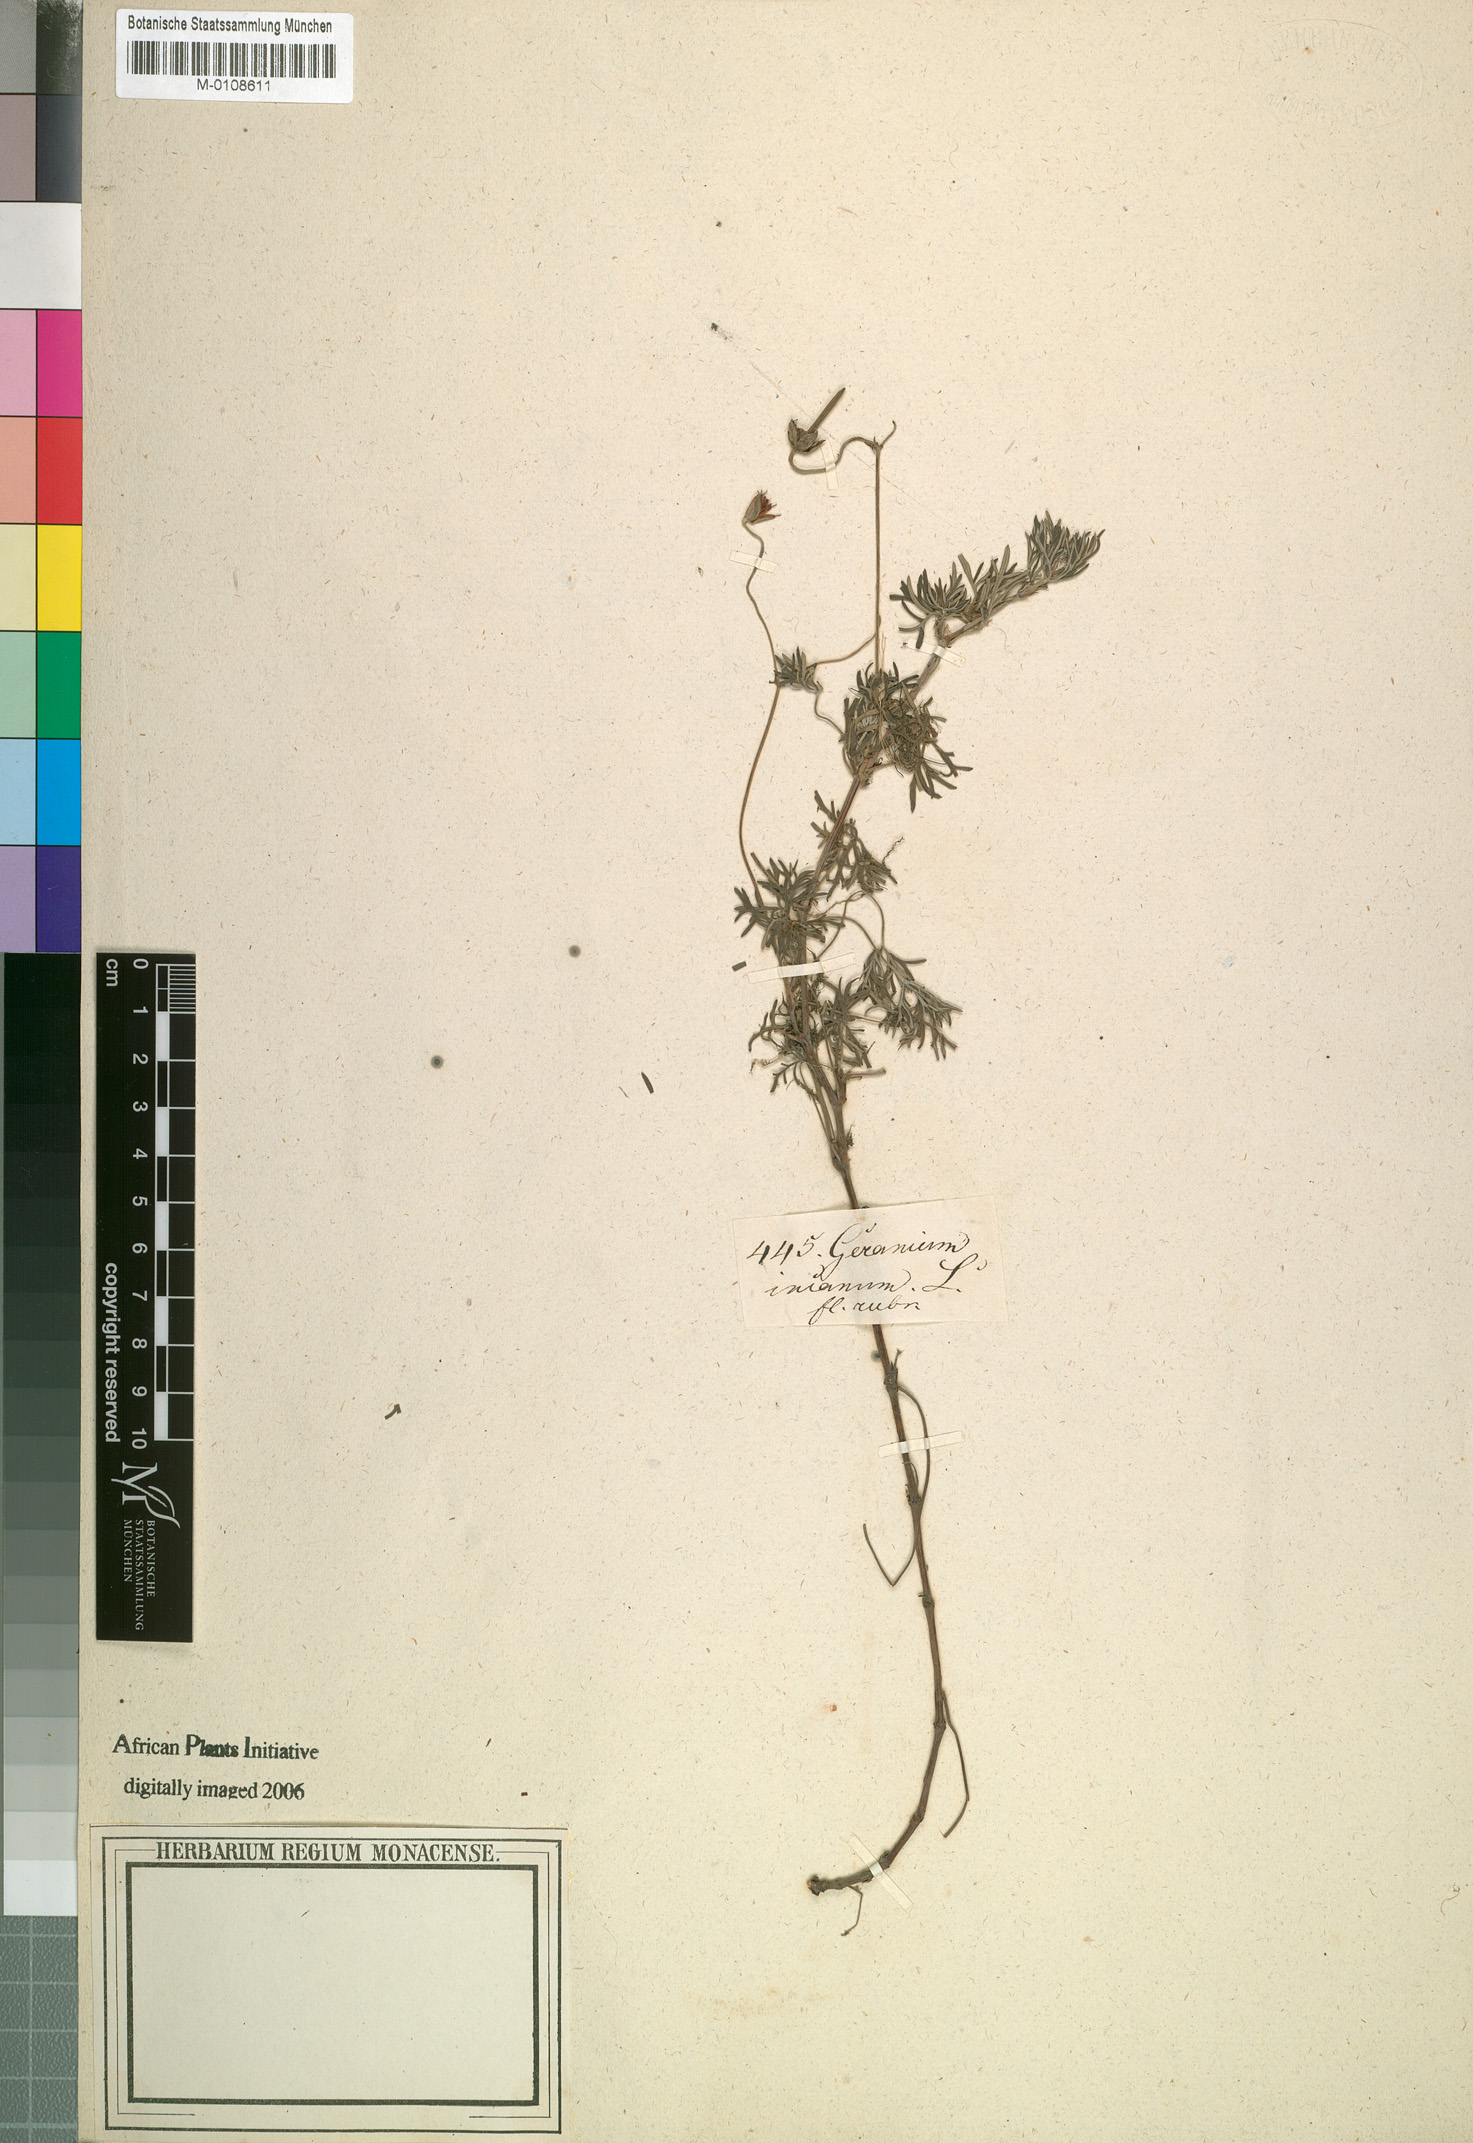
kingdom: Plantae
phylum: Tracheophyta
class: Magnoliopsida
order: Geraniales
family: Geraniaceae
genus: Geranium
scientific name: Geranium incanum
